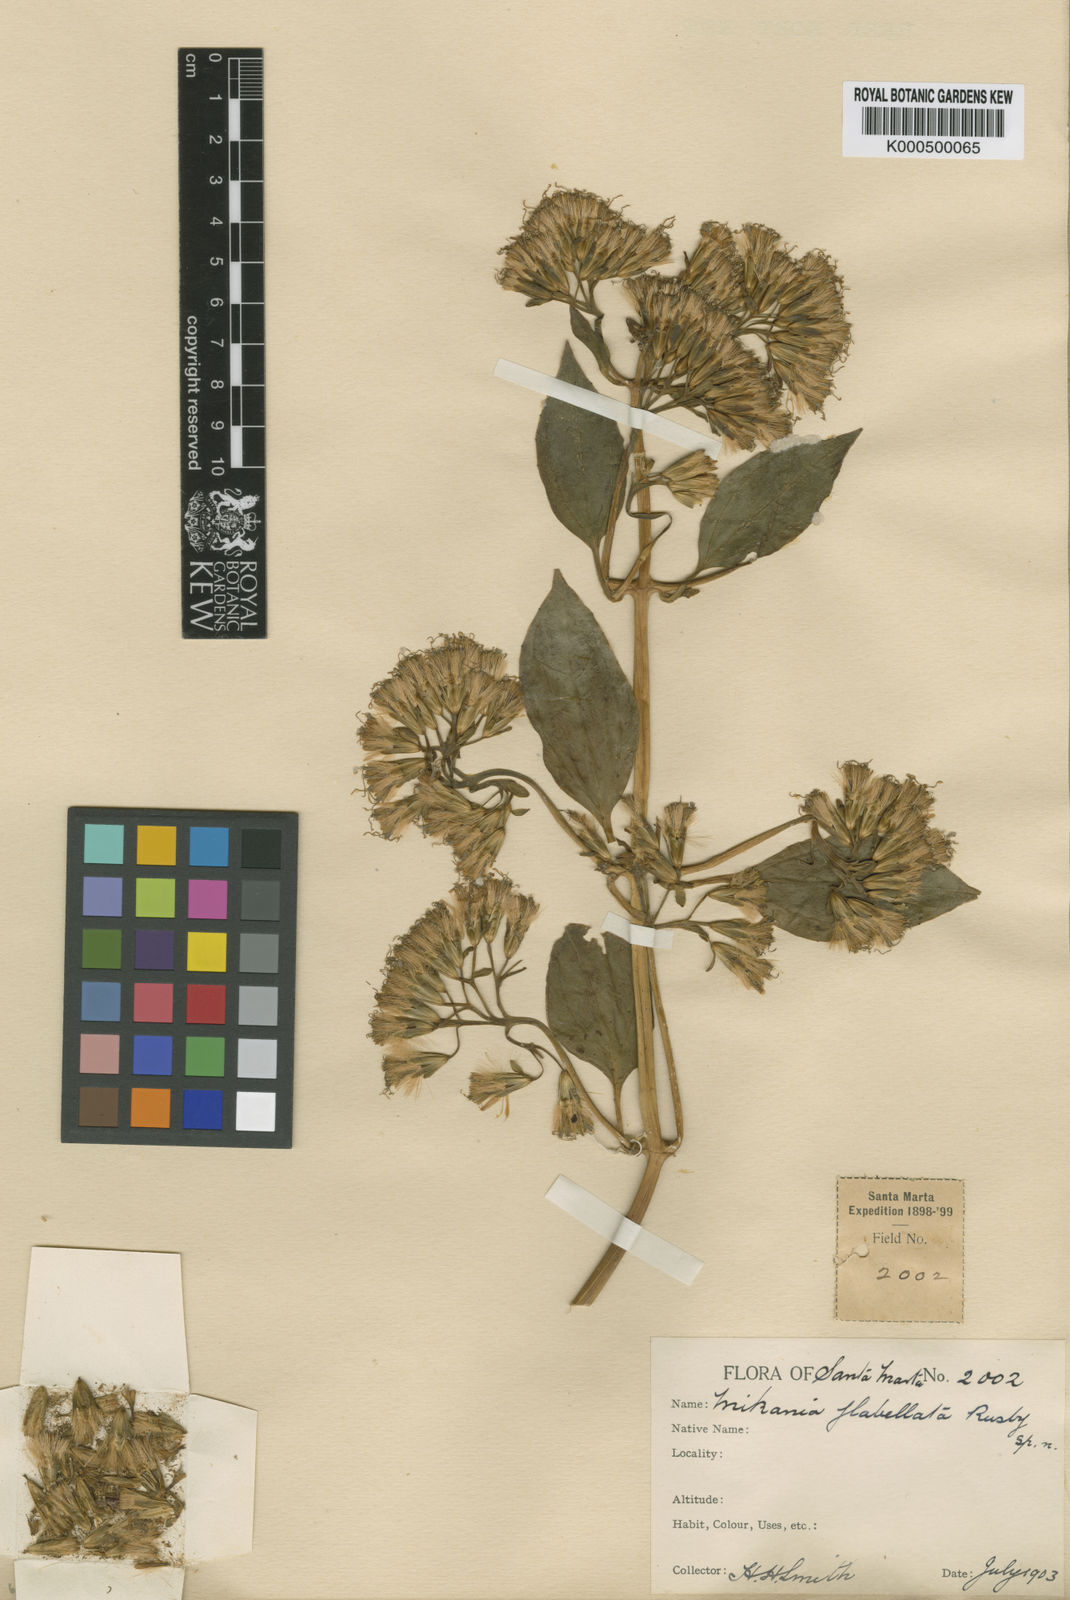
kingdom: Plantae
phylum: Tracheophyta
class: Magnoliopsida
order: Asterales
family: Asteraceae
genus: Mikania
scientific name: Mikania
